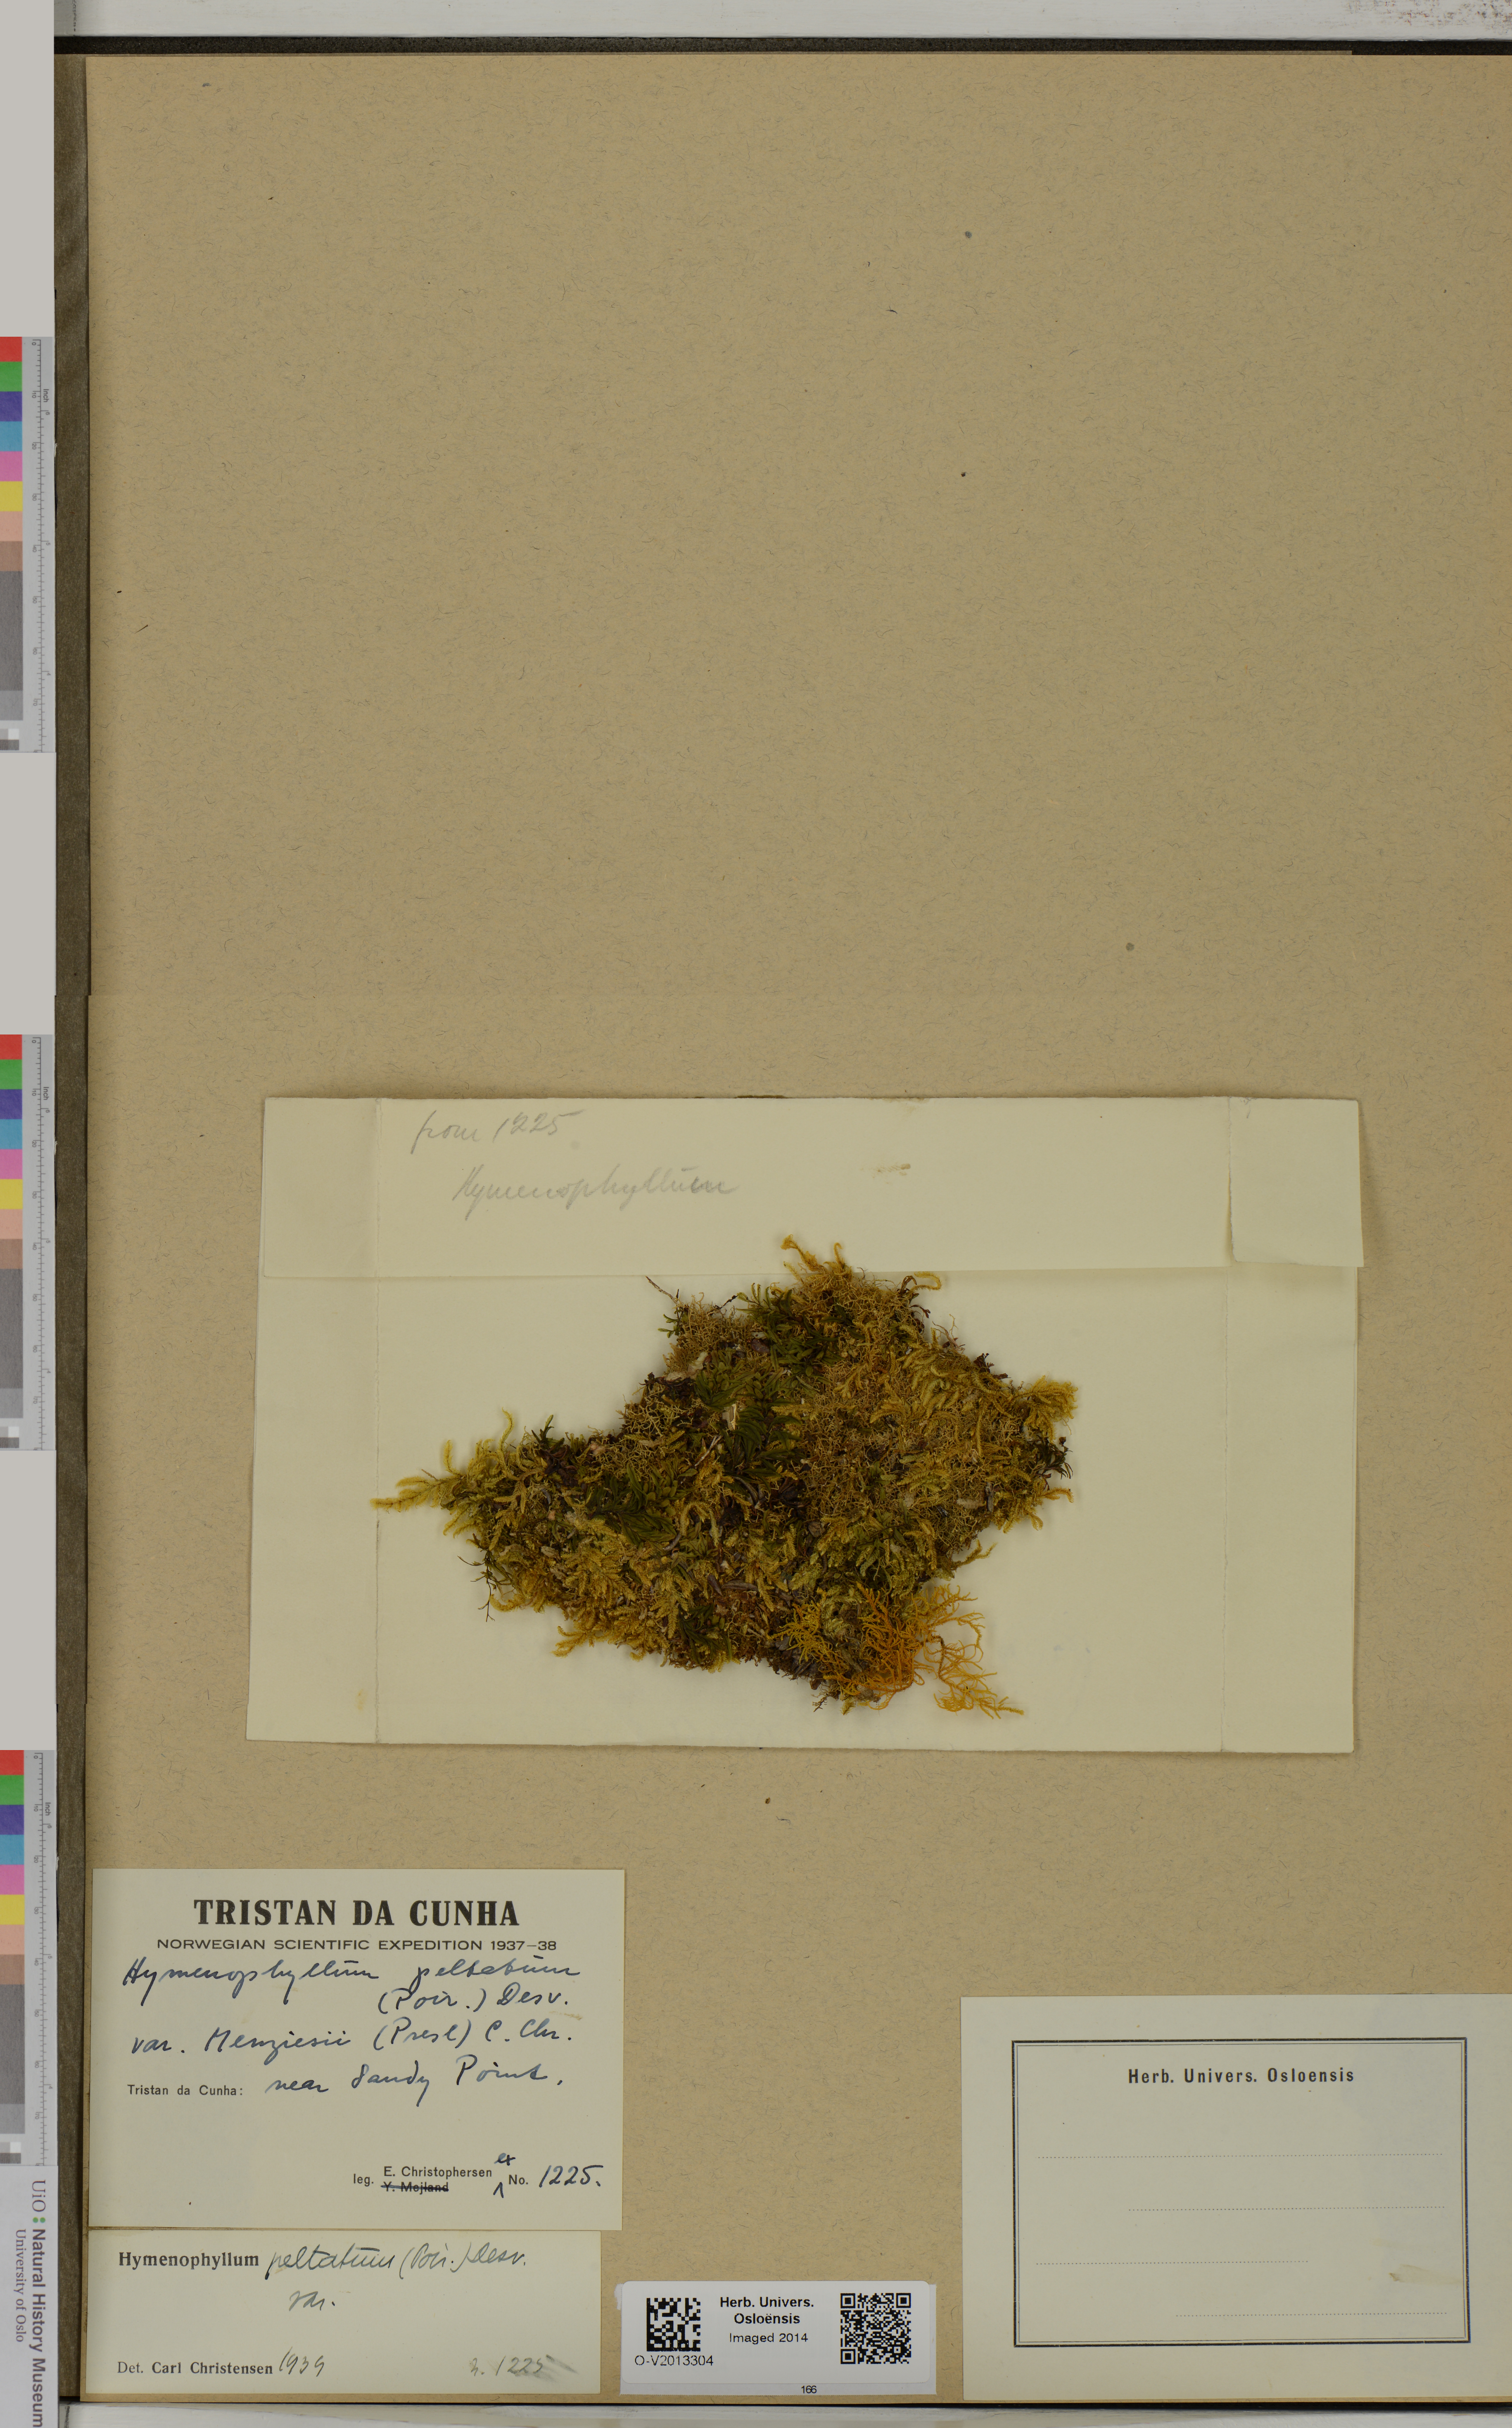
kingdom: Plantae
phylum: Tracheophyta
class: Polypodiopsida
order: Hymenophyllales
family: Hymenophyllaceae
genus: Hymenophyllum
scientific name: Hymenophyllum peltatum
